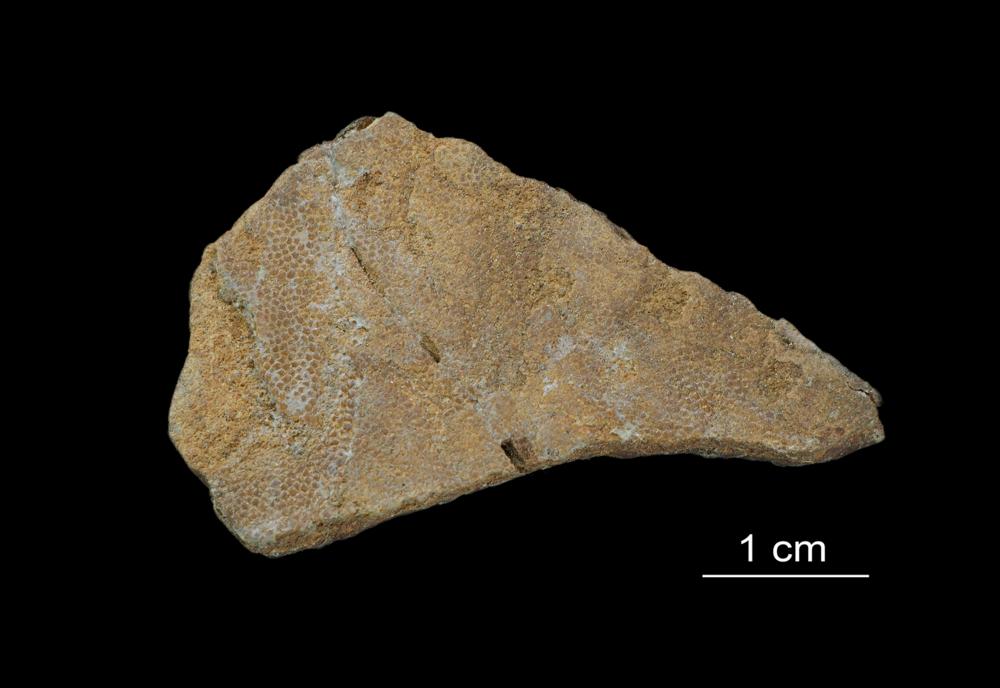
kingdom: Animalia
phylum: Chordata
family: Asterolepididae
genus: Asterolepis
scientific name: Asterolepis ornata
